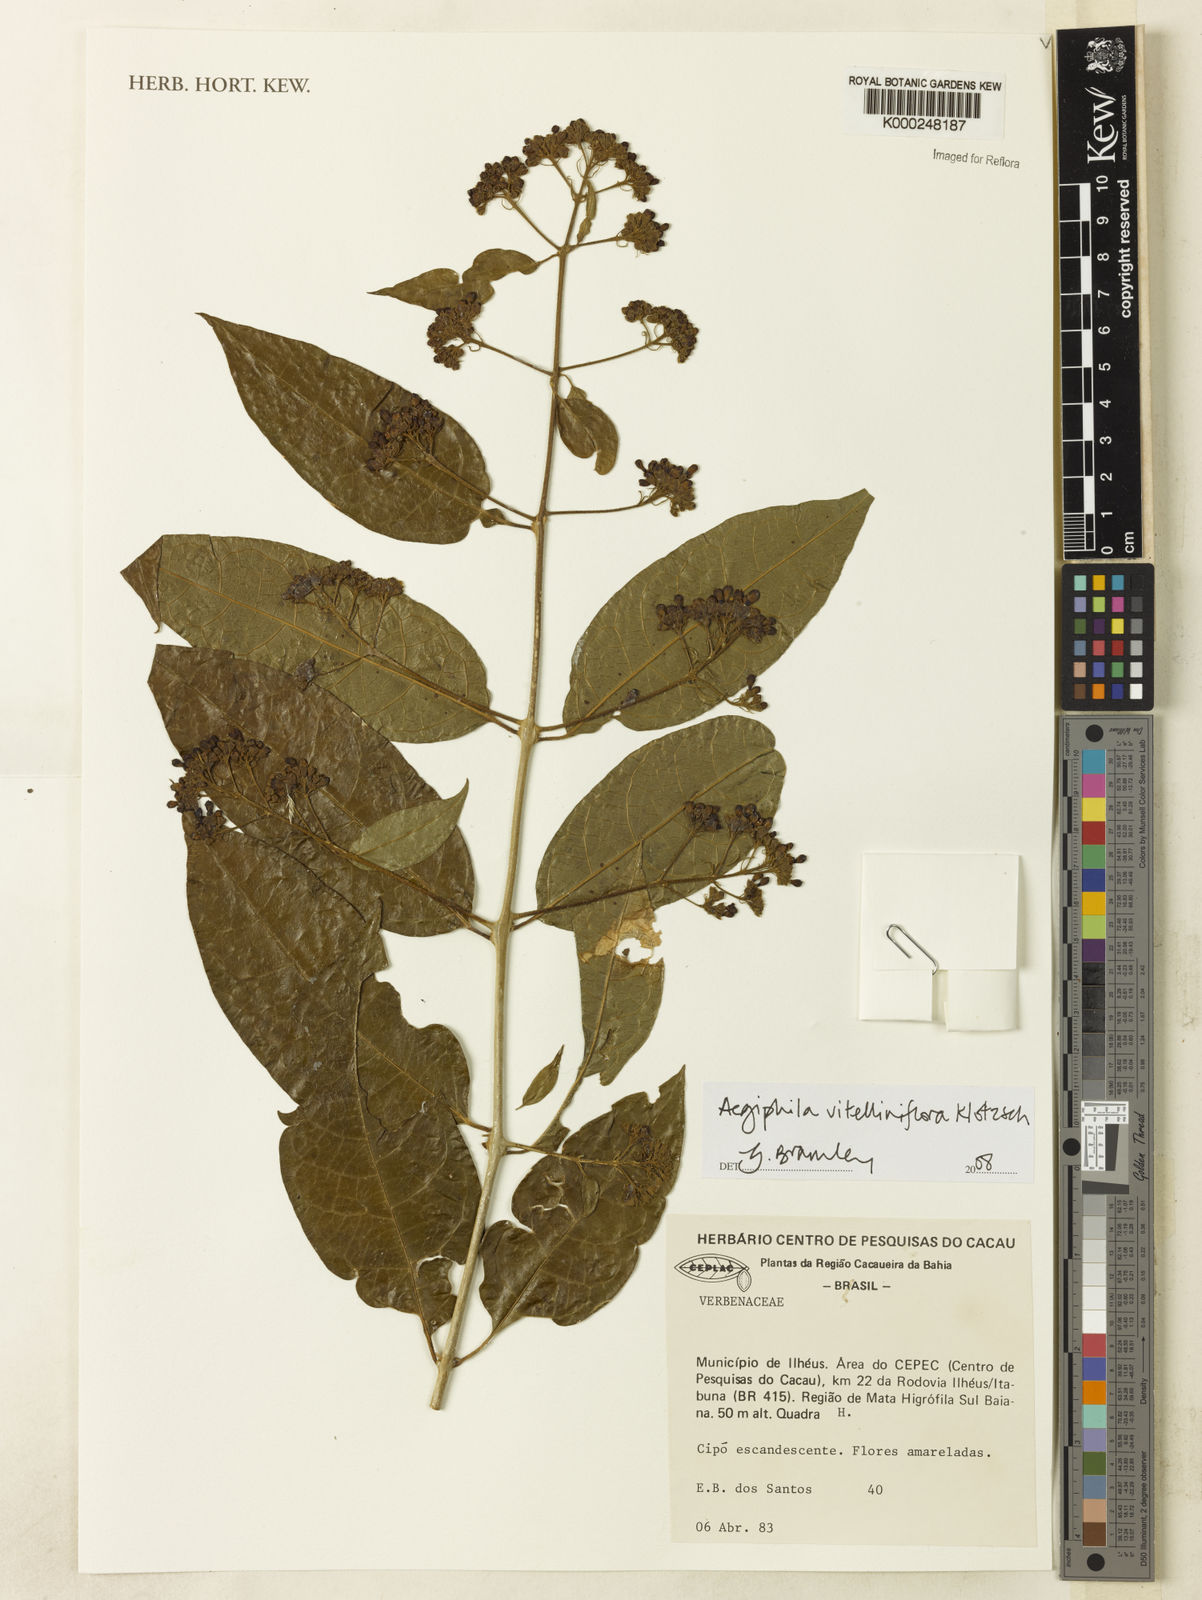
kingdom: Plantae
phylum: Tracheophyta
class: Magnoliopsida
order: Lamiales
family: Lamiaceae
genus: Aegiphila
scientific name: Aegiphila vitelliniflora
